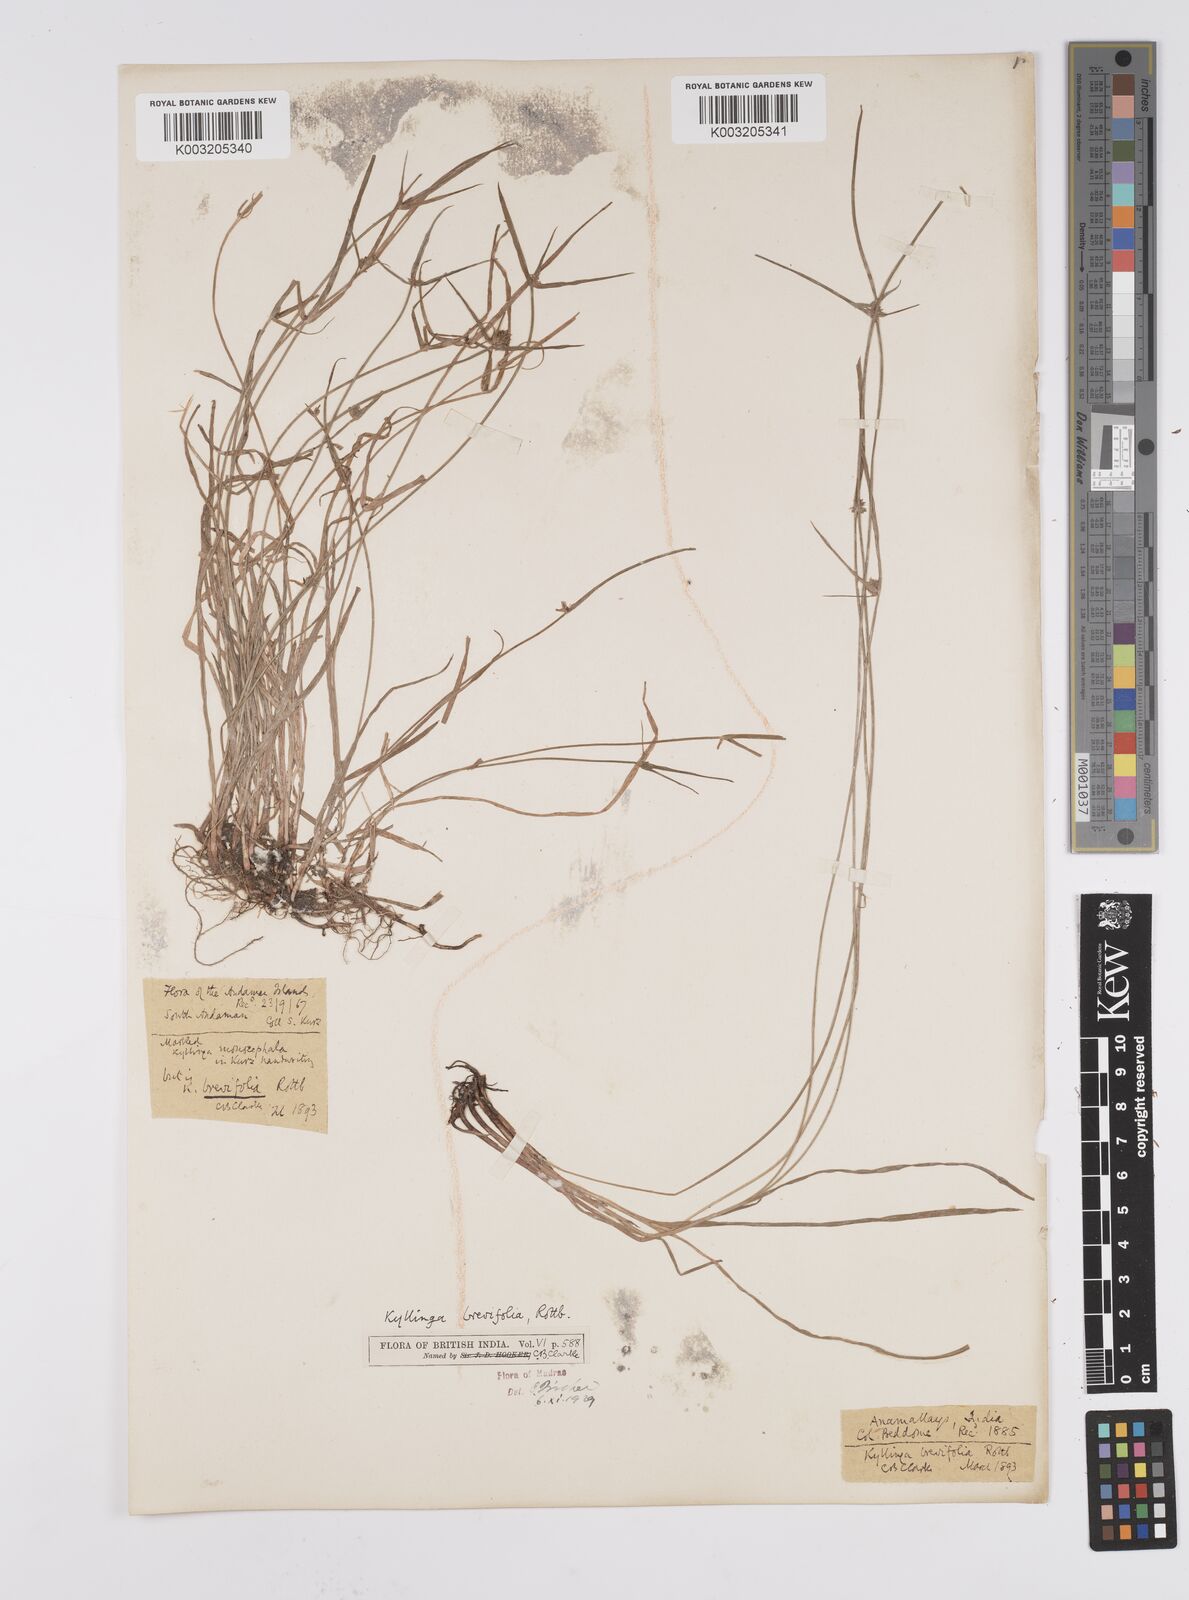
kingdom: Plantae
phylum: Tracheophyta
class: Liliopsida
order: Poales
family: Cyperaceae
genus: Cyperus
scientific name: Cyperus brevifolius
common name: Globe kyllinga
